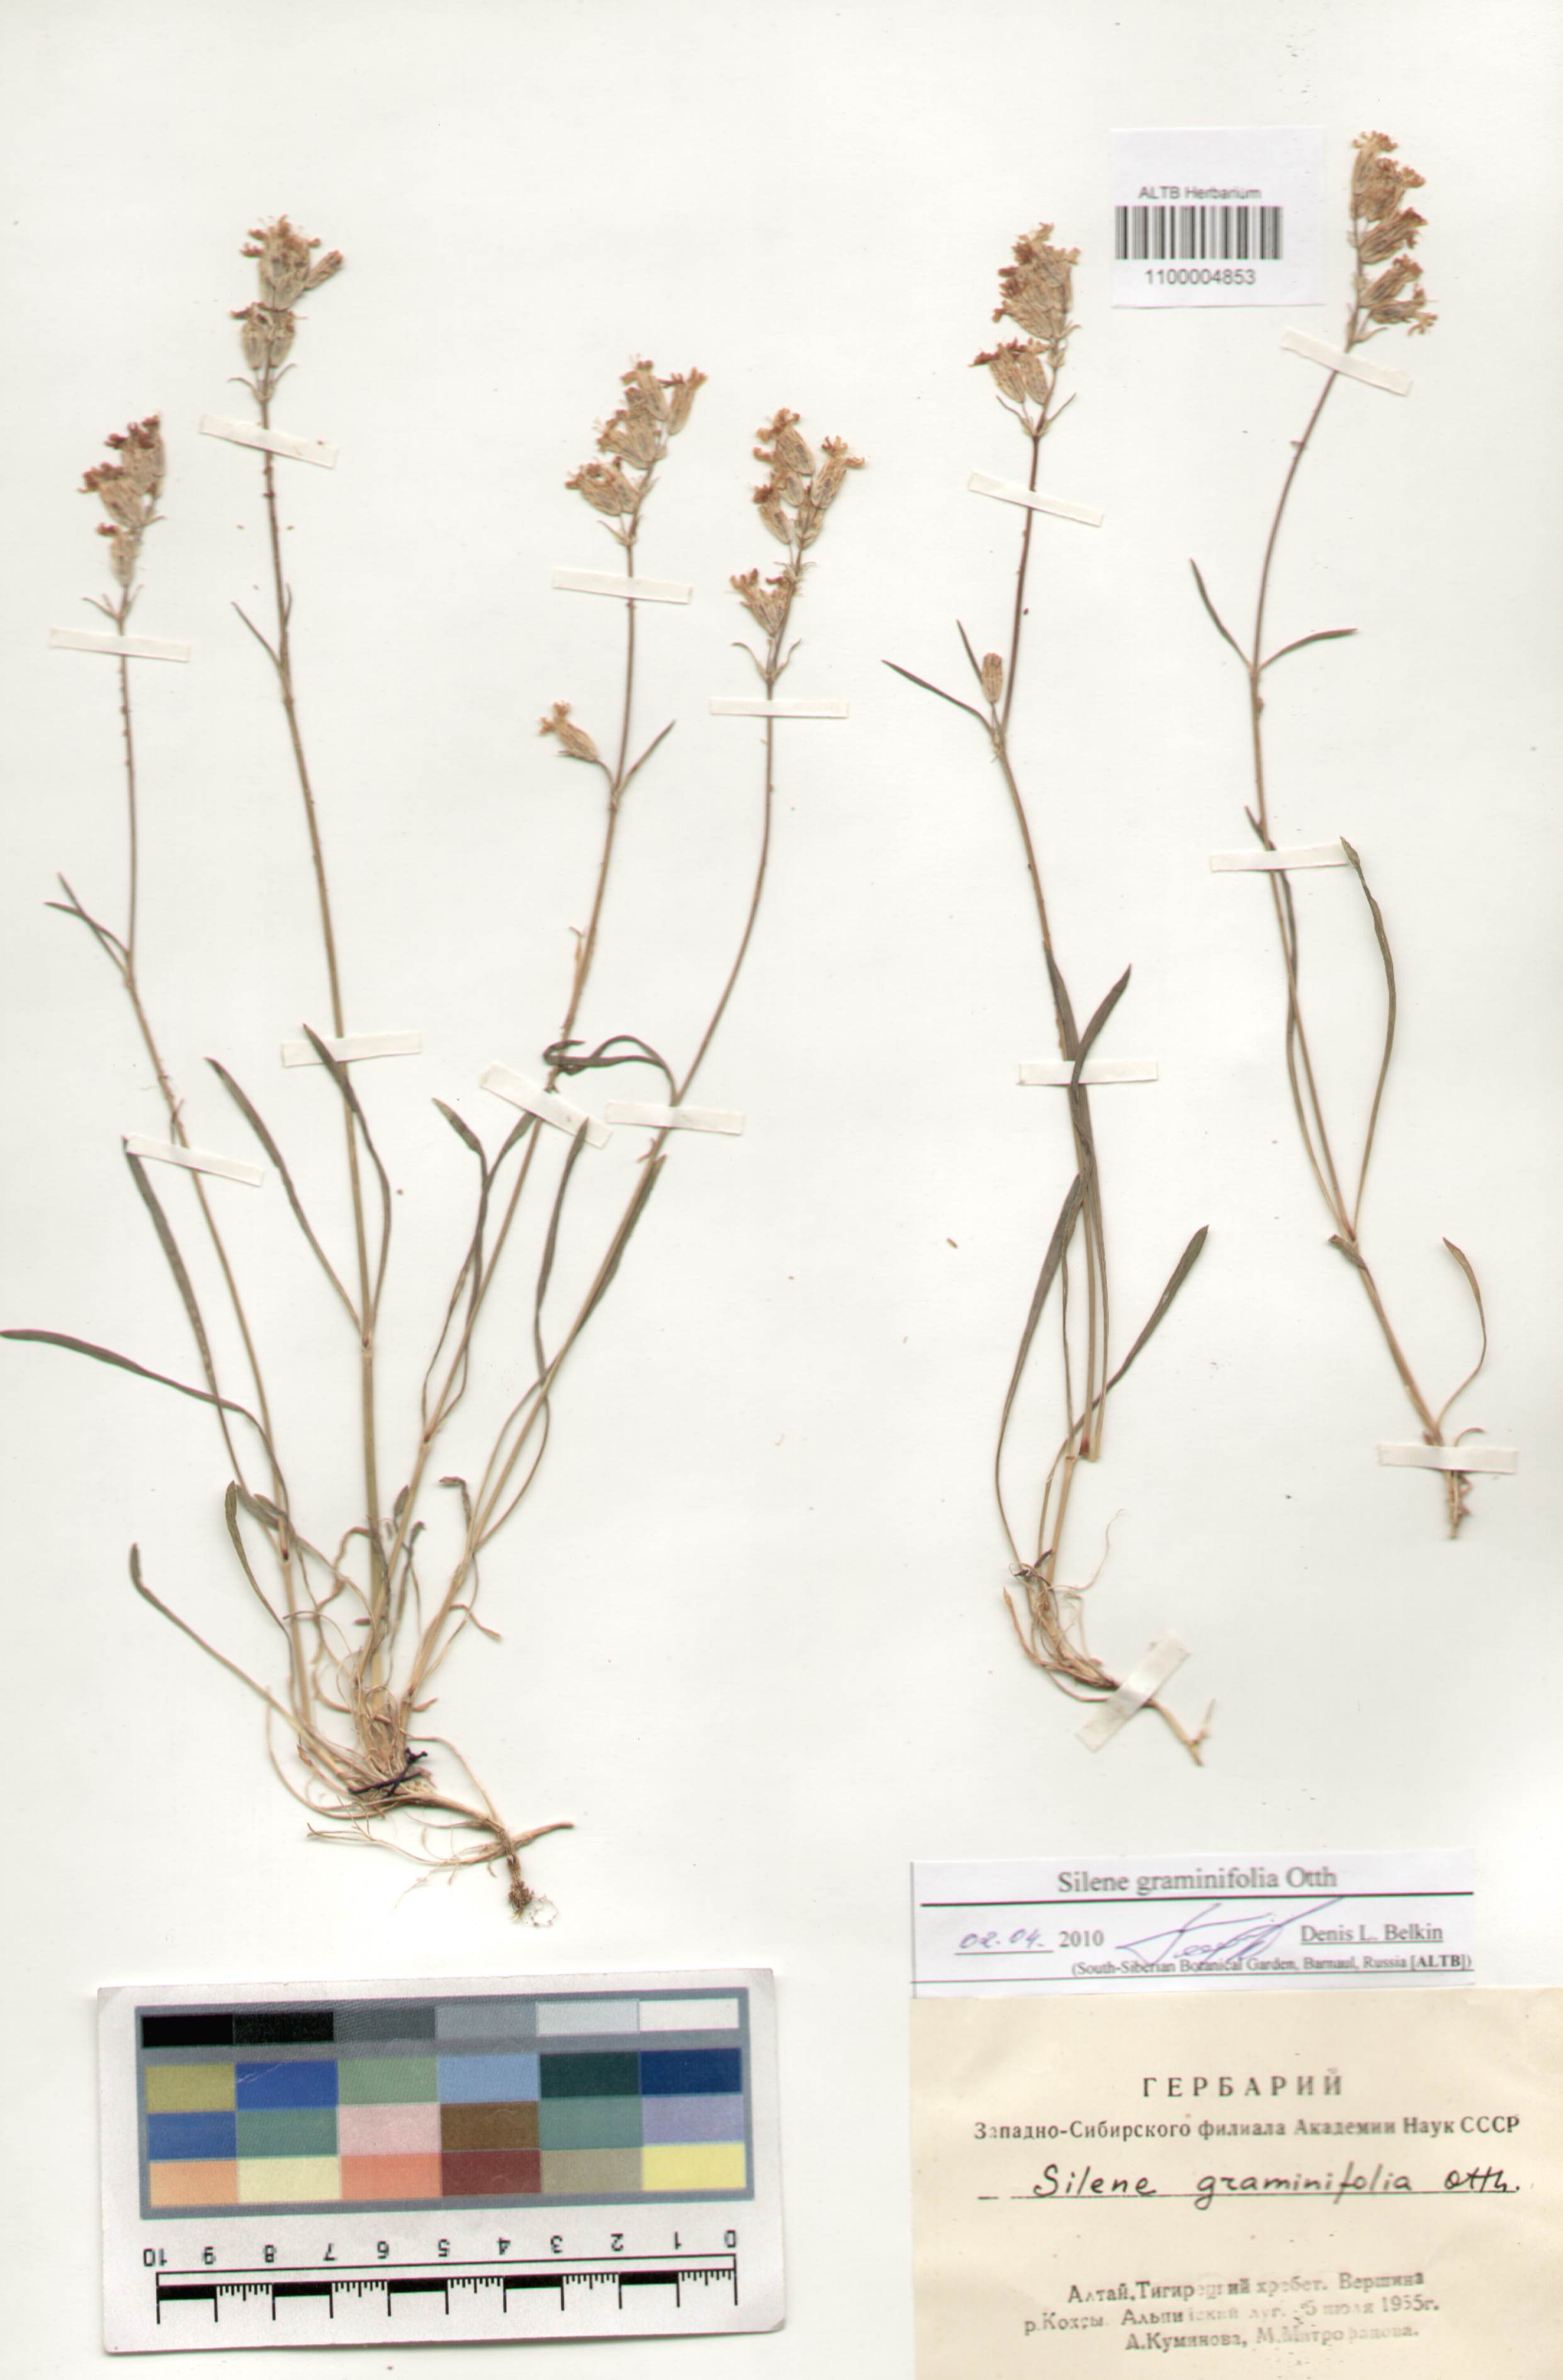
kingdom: Plantae
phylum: Tracheophyta
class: Magnoliopsida
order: Caryophyllales
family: Caryophyllaceae
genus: Silene
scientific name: Silene graminifolia
